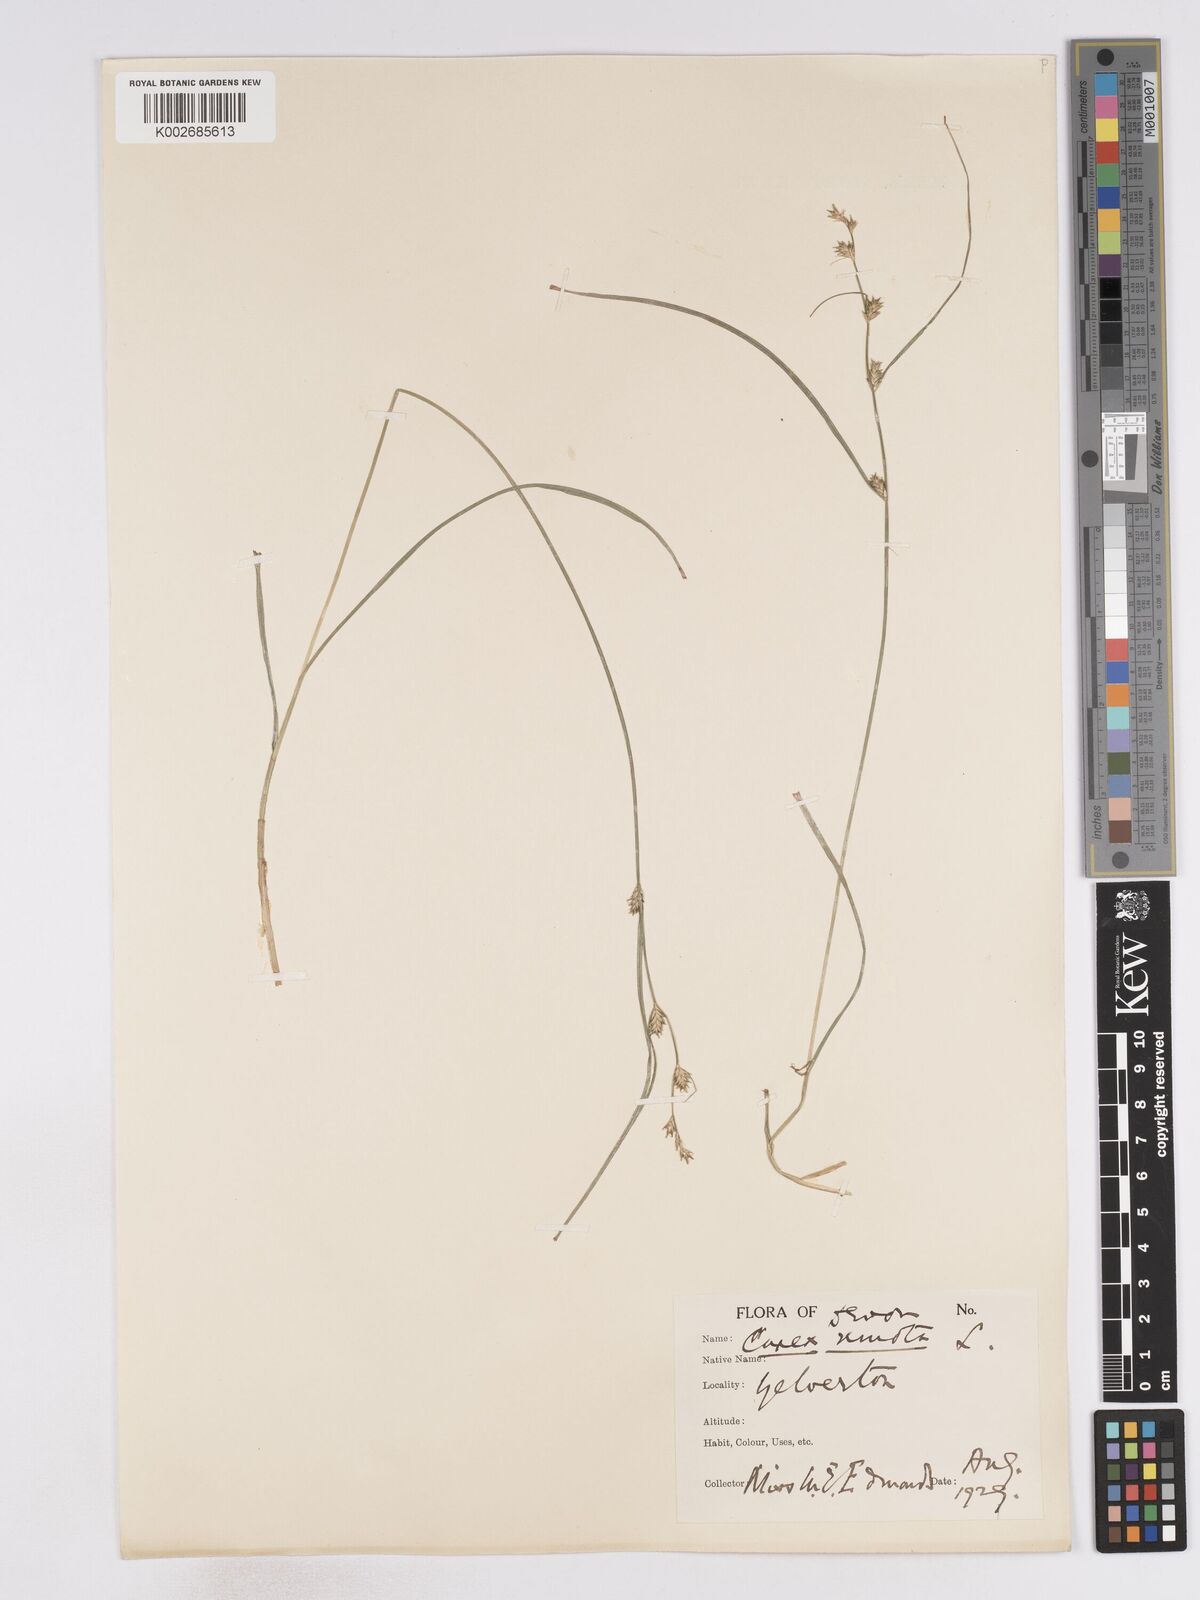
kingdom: Plantae
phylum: Tracheophyta
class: Liliopsida
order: Poales
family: Cyperaceae
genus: Carex
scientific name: Carex remota
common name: Remote sedge
